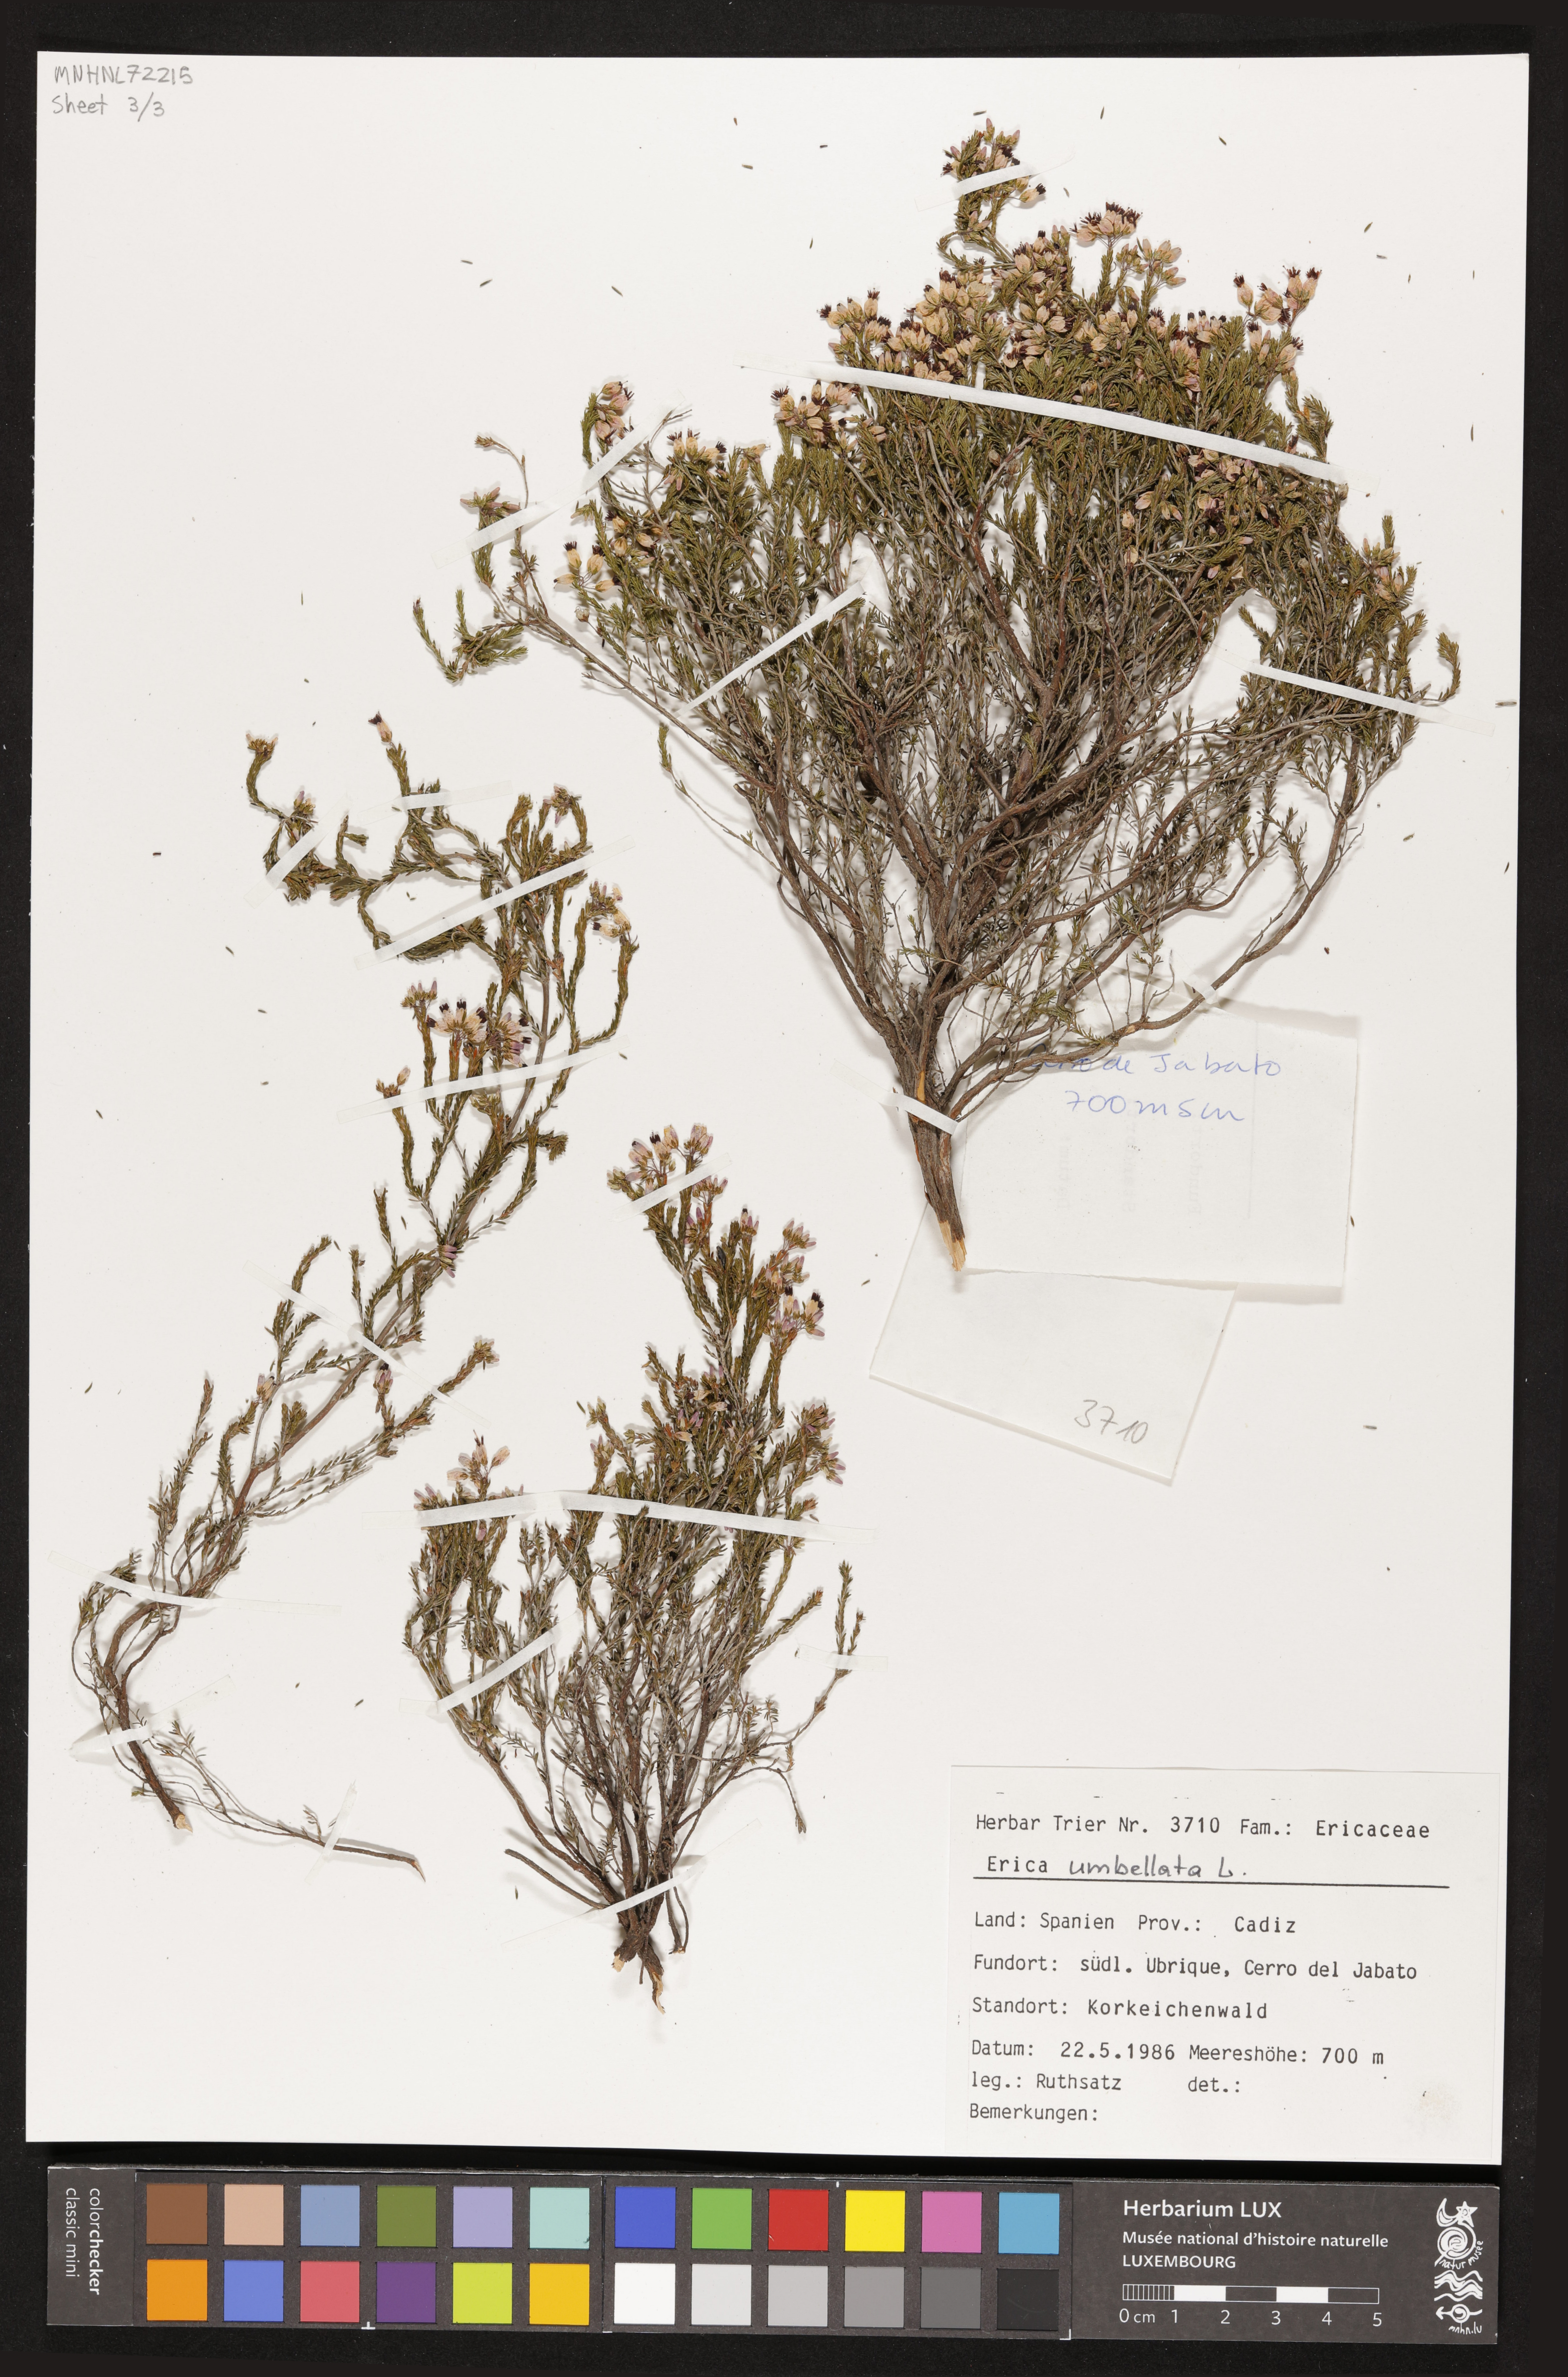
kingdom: Plantae
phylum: Tracheophyta
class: Magnoliopsida
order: Ericales
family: Ericaceae
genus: Erica
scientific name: Erica umbellata
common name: Dwarf spanish heath
